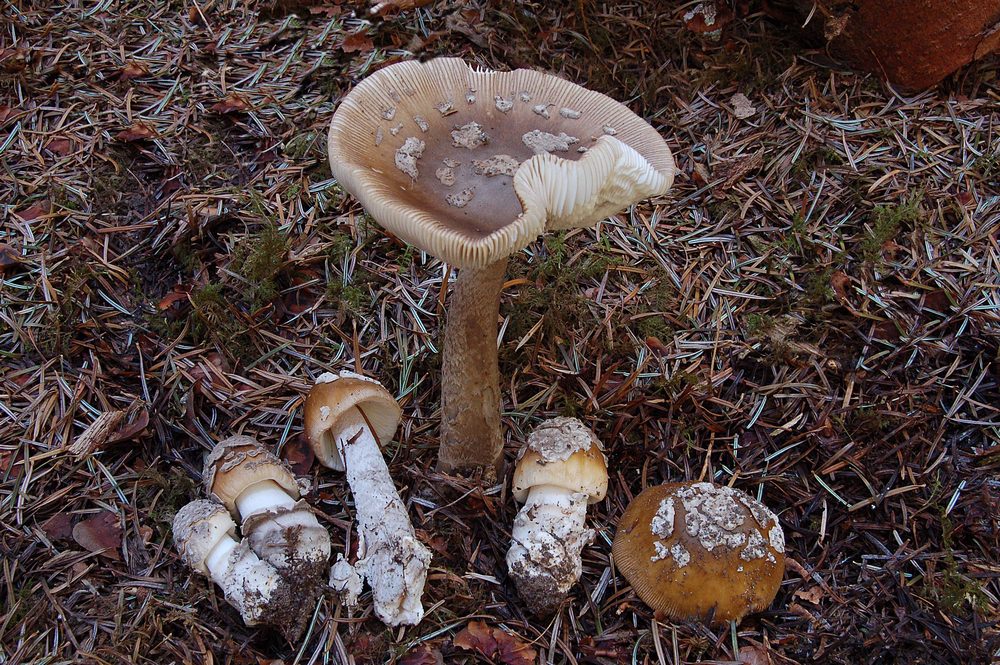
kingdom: Fungi
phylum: Basidiomycota
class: Agaricomycetes
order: Agaricales
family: Amanitaceae
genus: Amanita
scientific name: Amanita ceciliae
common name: stor kam-fluesvamp
